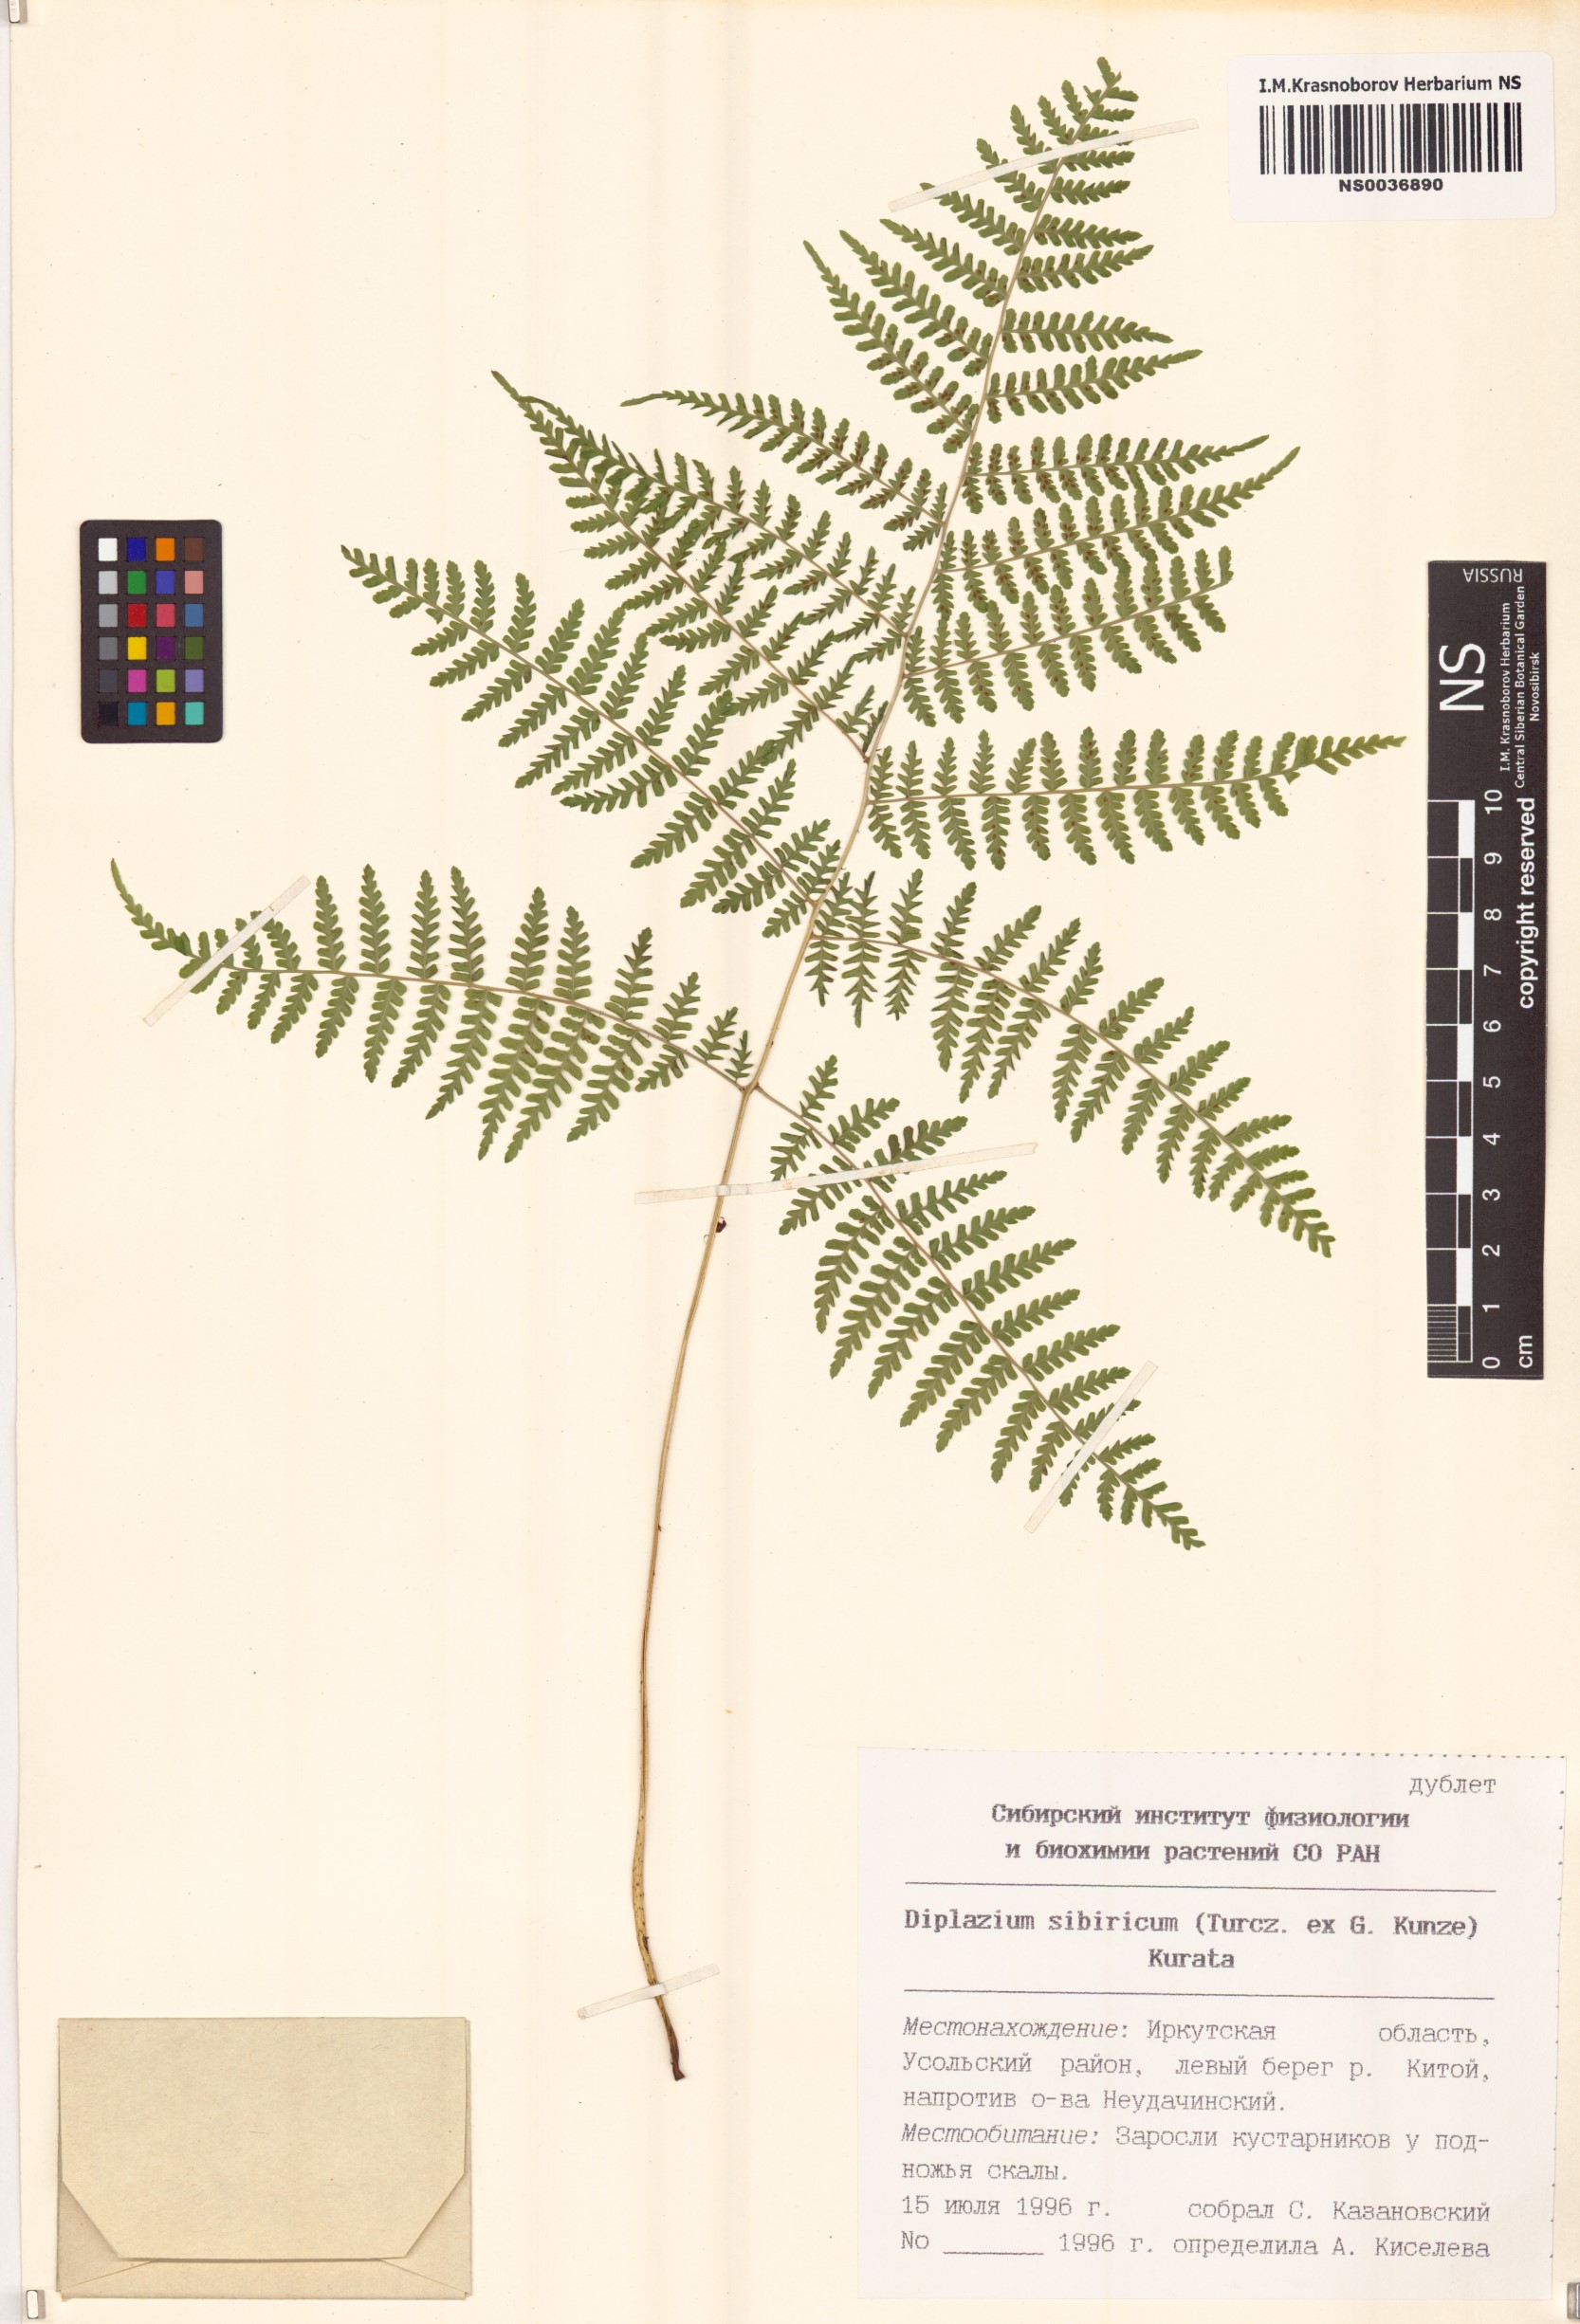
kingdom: Plantae
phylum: Tracheophyta
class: Polypodiopsida
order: Polypodiales
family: Athyriaceae
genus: Diplazium
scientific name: Diplazium sibiricum
